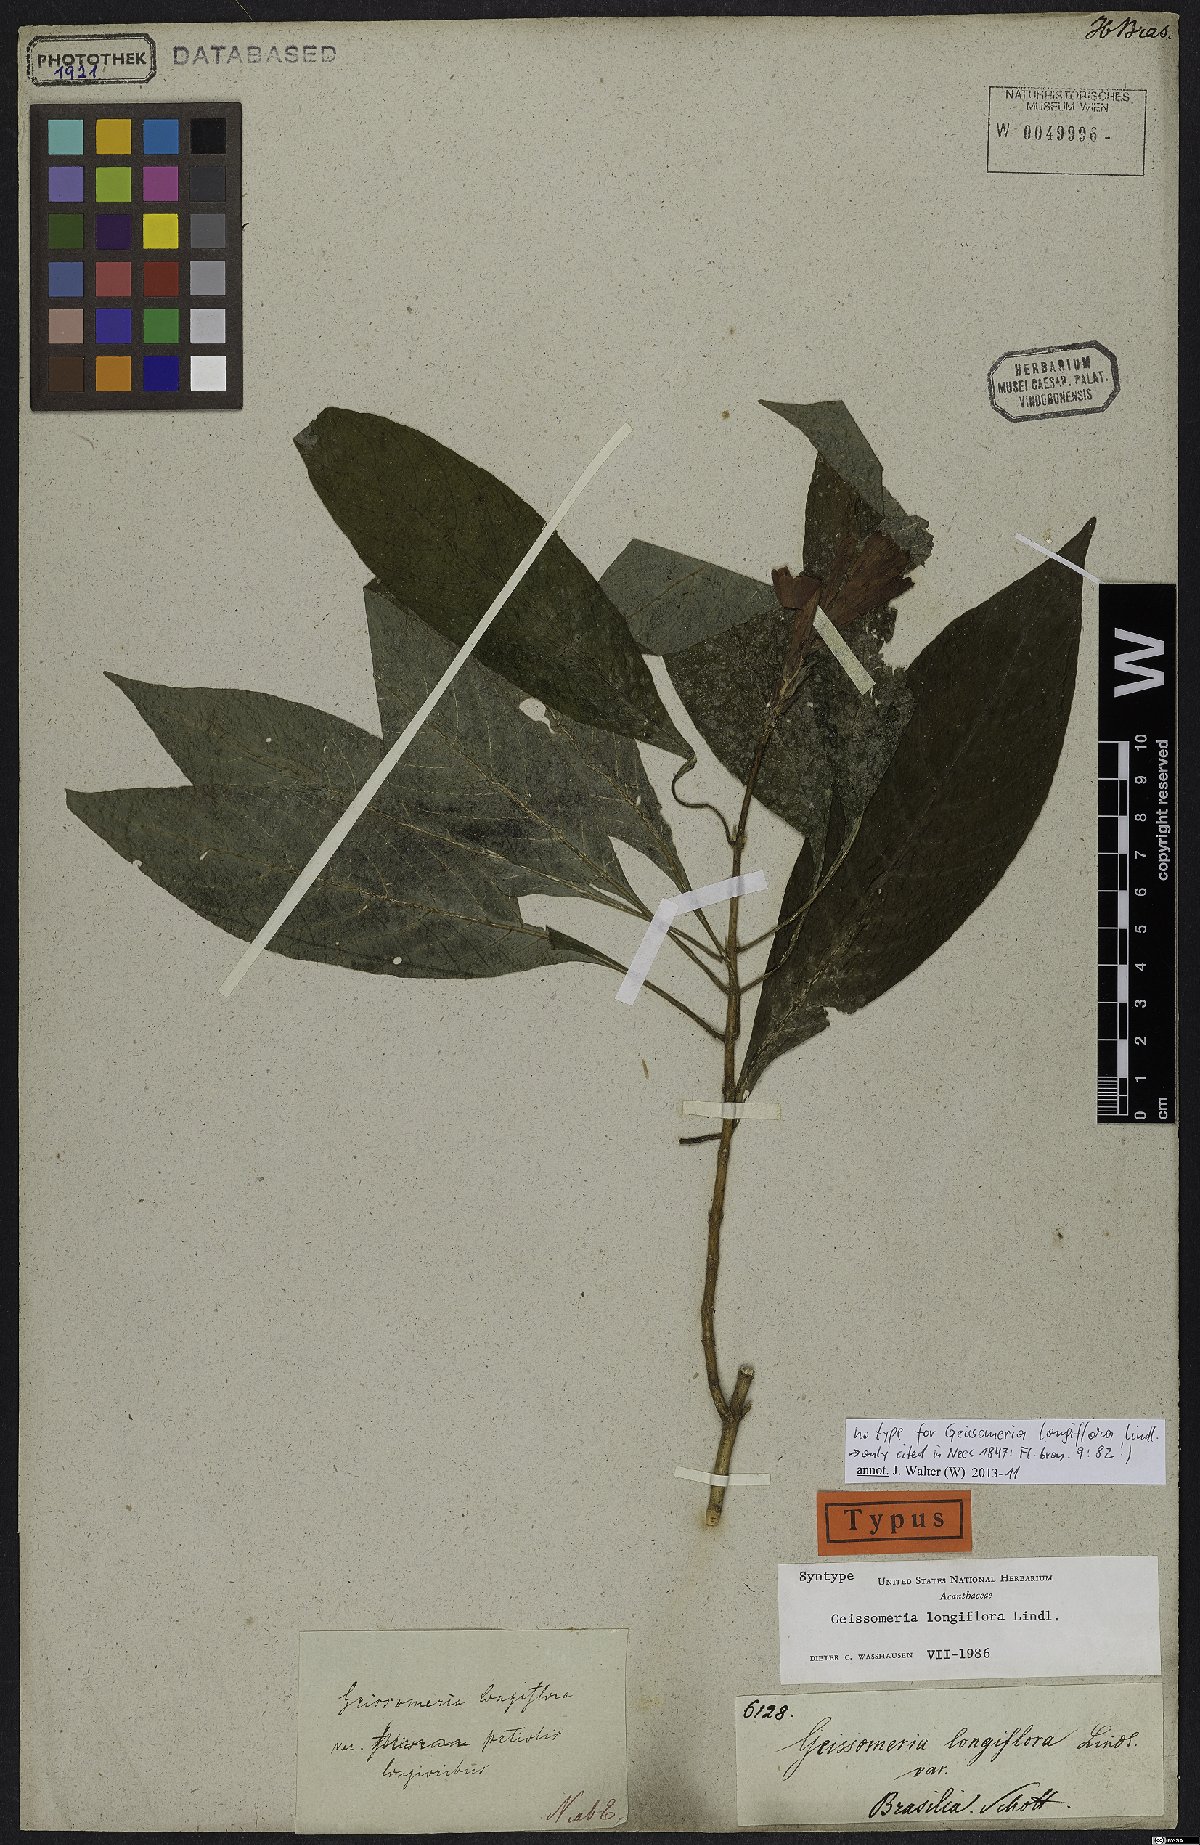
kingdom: Plantae
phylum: Tracheophyta
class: Magnoliopsida
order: Lamiales
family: Acanthaceae
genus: Aphelandra
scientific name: Aphelandra longiflora
